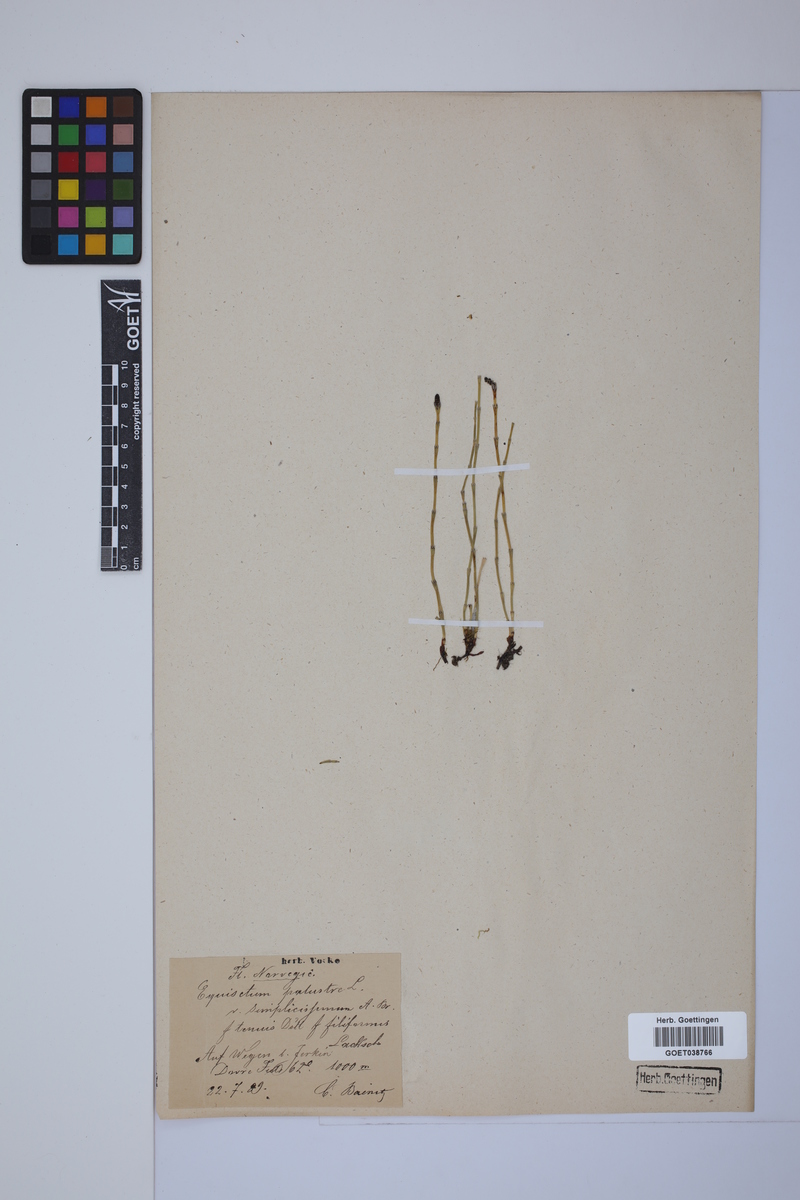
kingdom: Plantae
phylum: Tracheophyta
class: Polypodiopsida
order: Equisetales
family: Equisetaceae
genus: Equisetum
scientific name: Equisetum palustre
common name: Marsh horsetail
